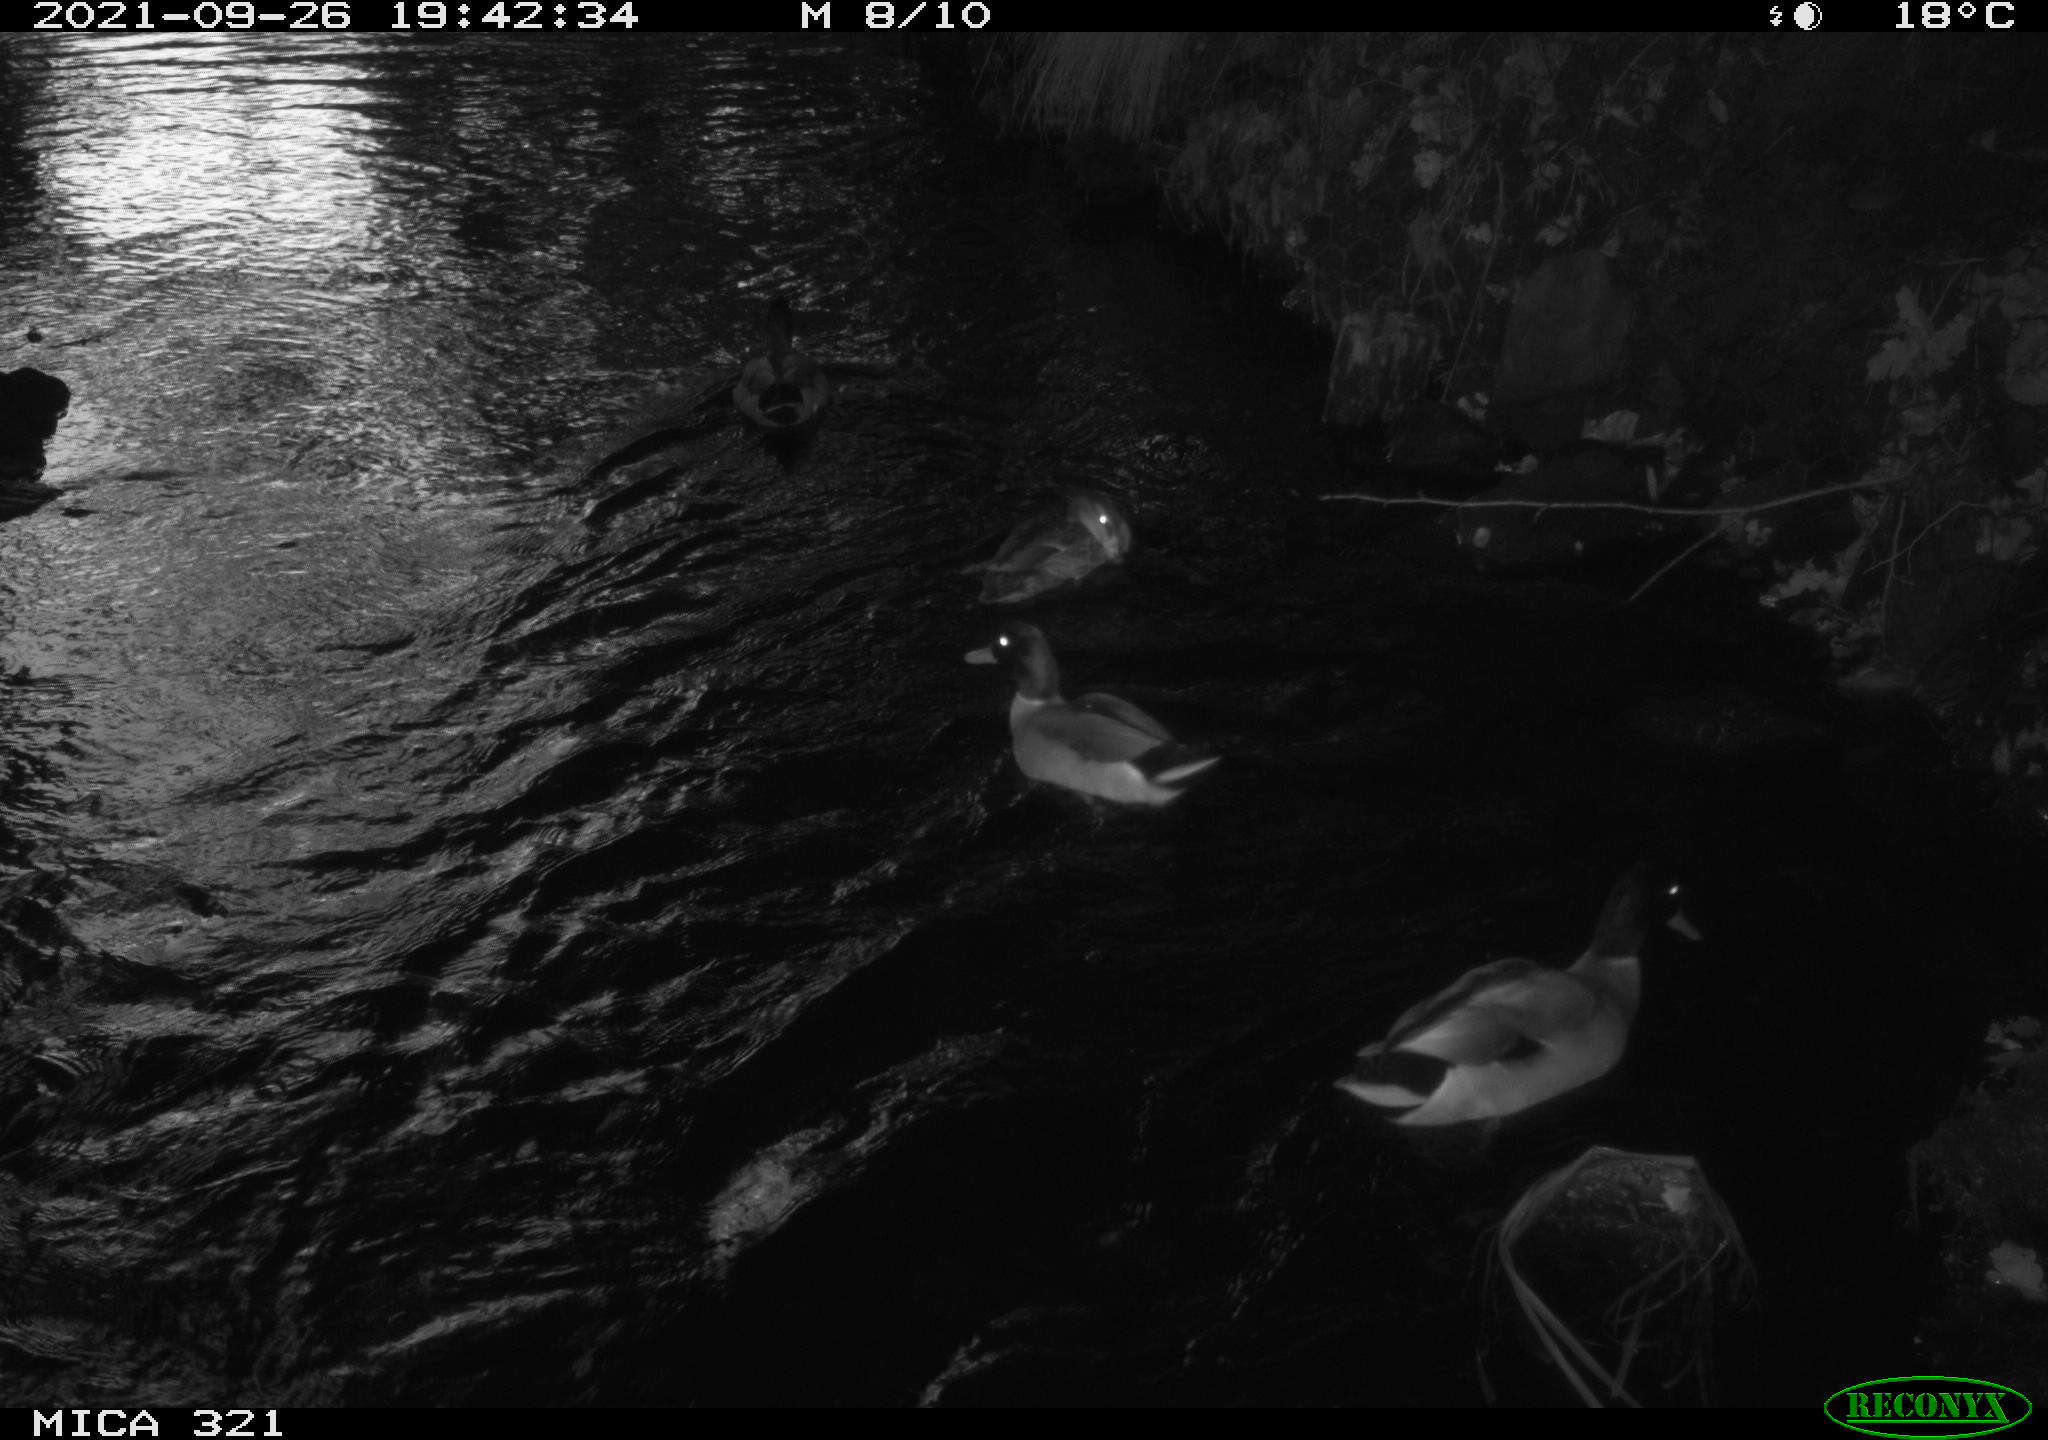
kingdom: Animalia
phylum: Chordata
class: Aves
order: Anseriformes
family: Anatidae
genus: Anas
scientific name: Anas platyrhynchos
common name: Mallard
